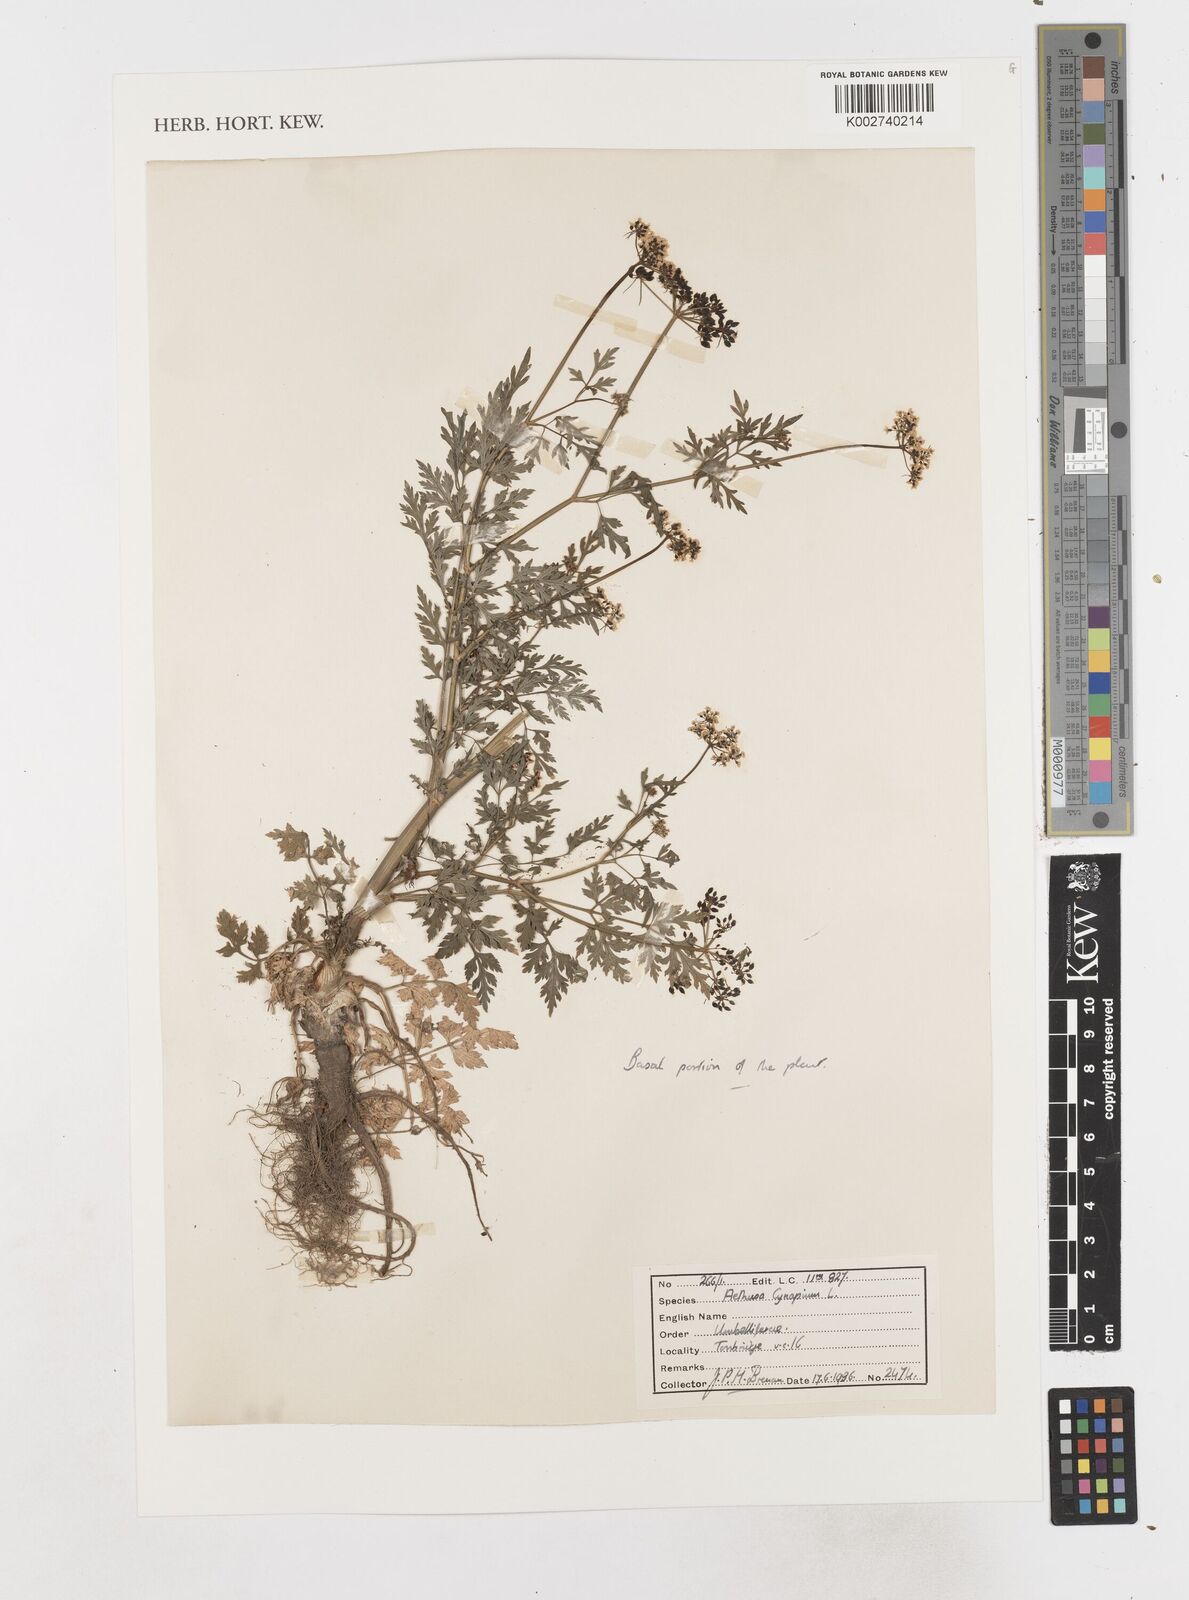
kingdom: Plantae
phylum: Tracheophyta
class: Magnoliopsida
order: Apiales
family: Apiaceae
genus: Aethusa
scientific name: Aethusa cynapium
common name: Fool's parsley
